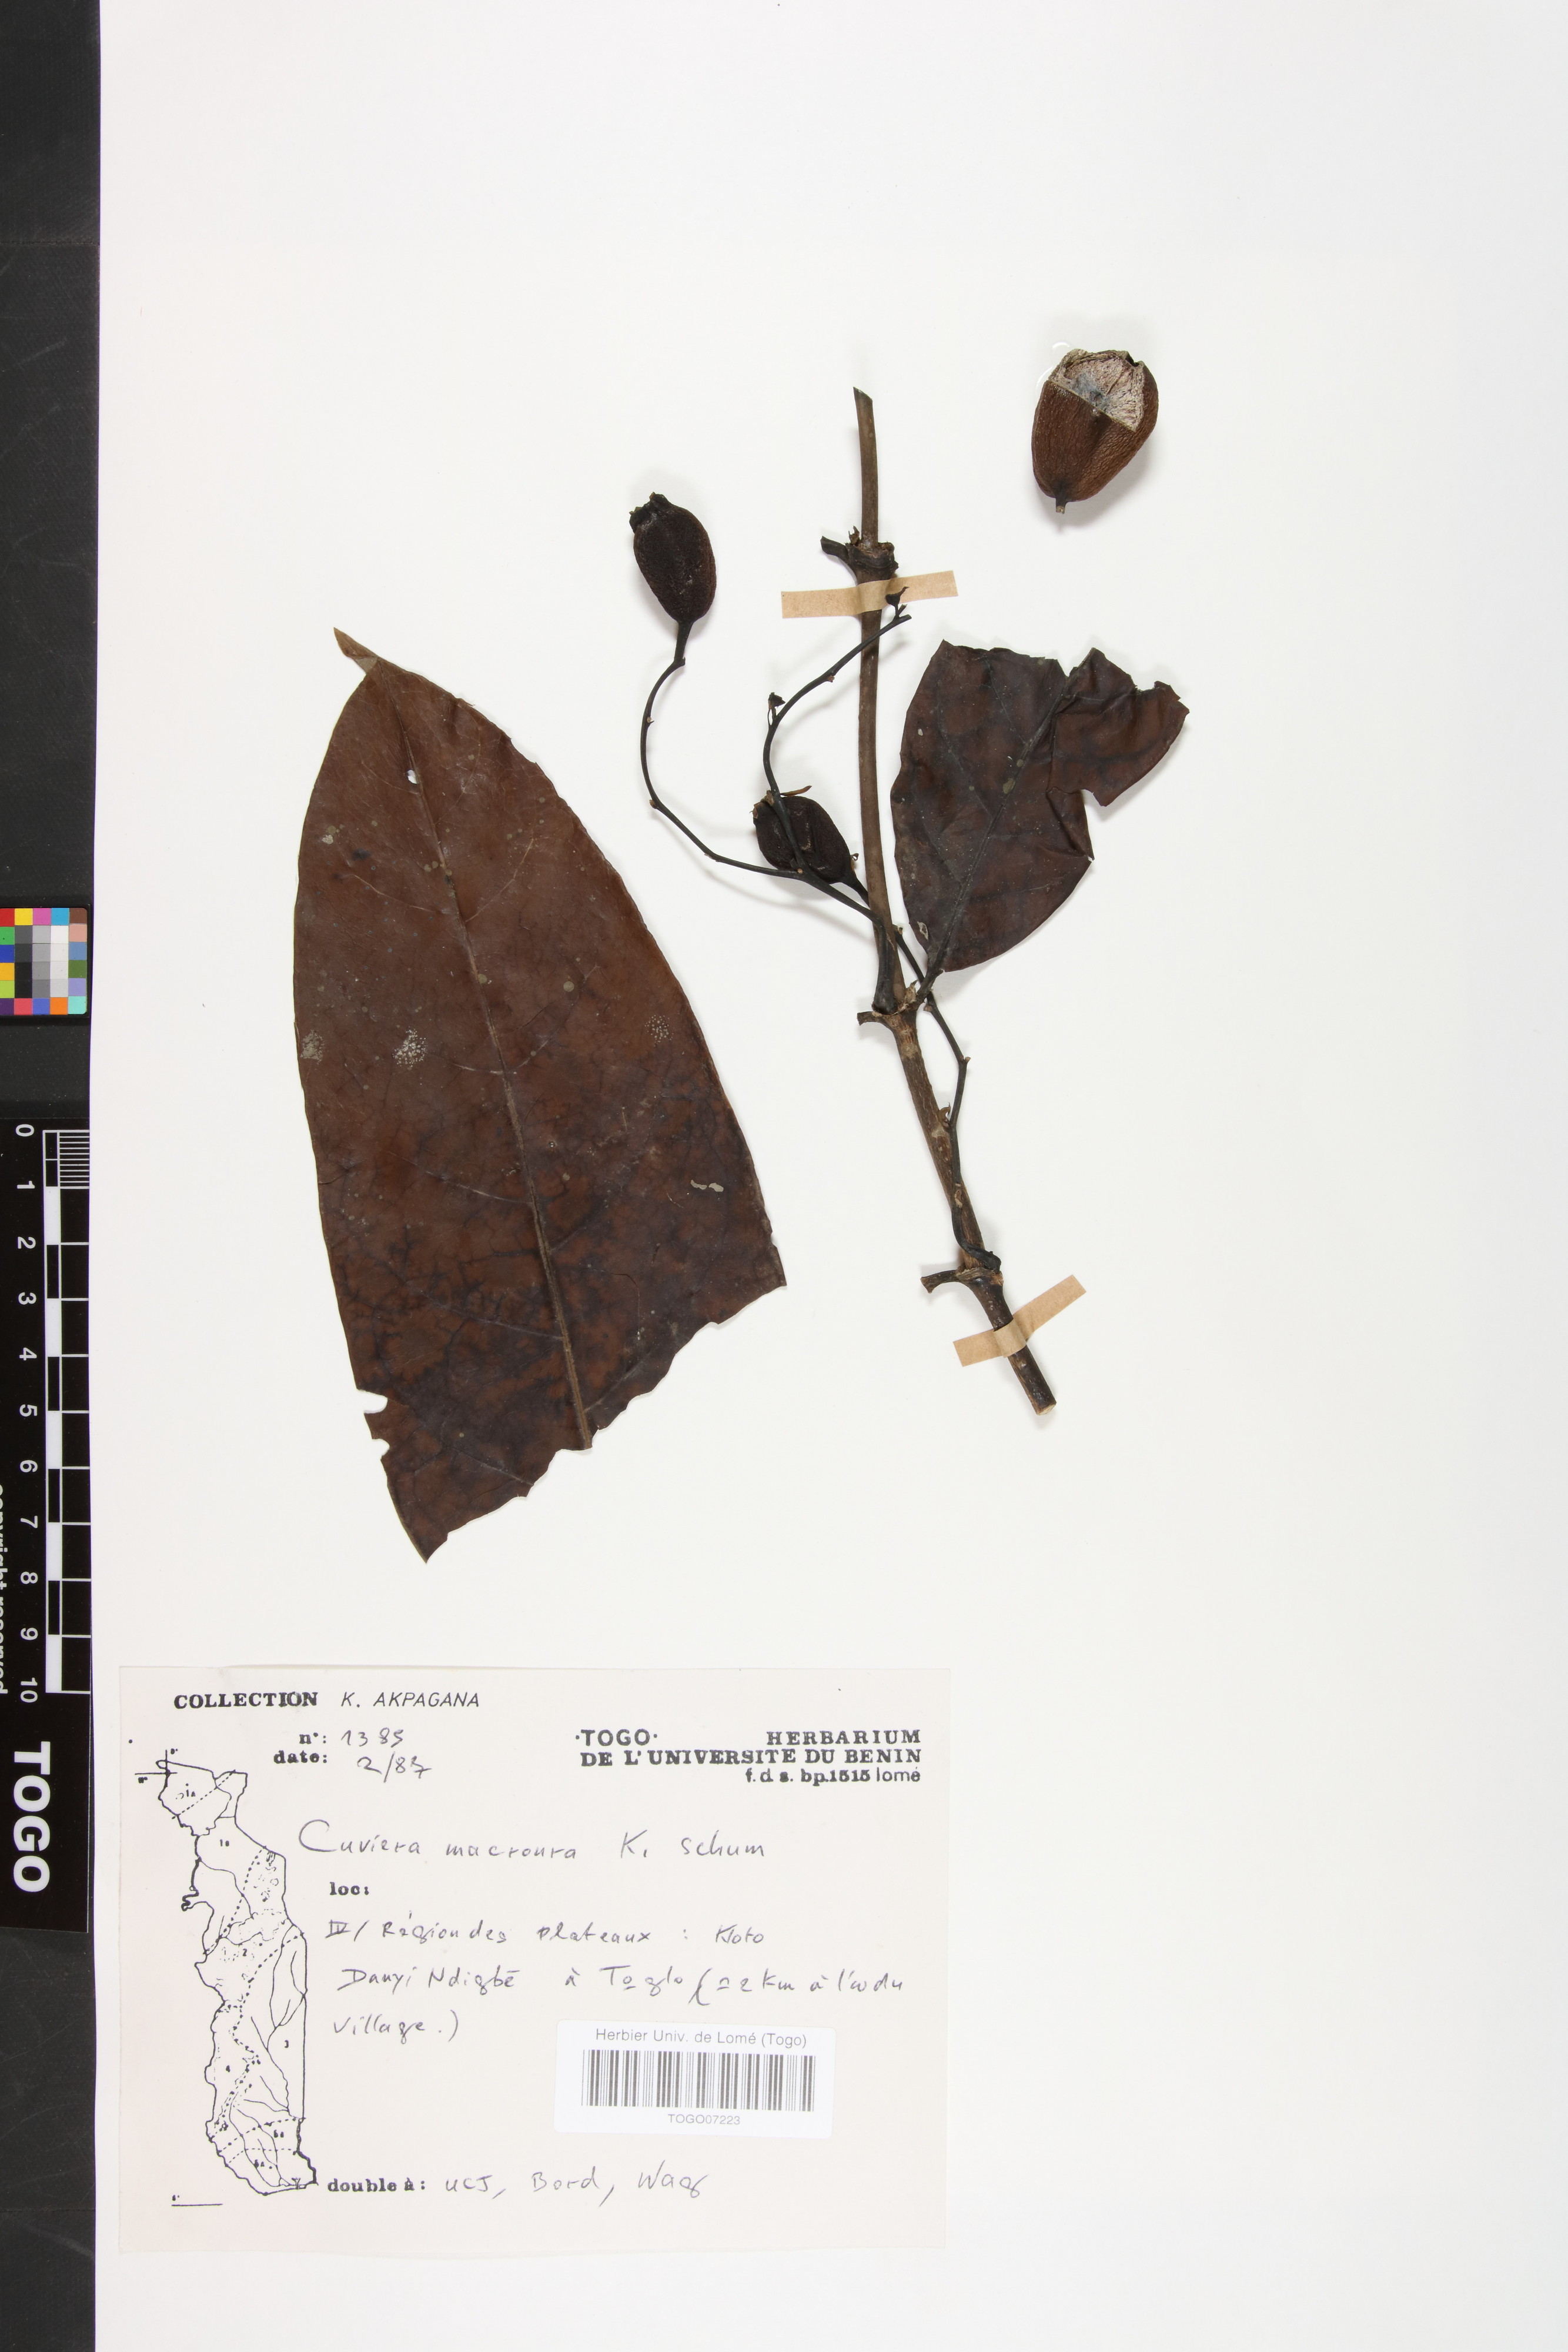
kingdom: Plantae
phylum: Tracheophyta
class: Magnoliopsida
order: Gentianales
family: Rubiaceae
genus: Cuviera
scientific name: Cuviera macroura
